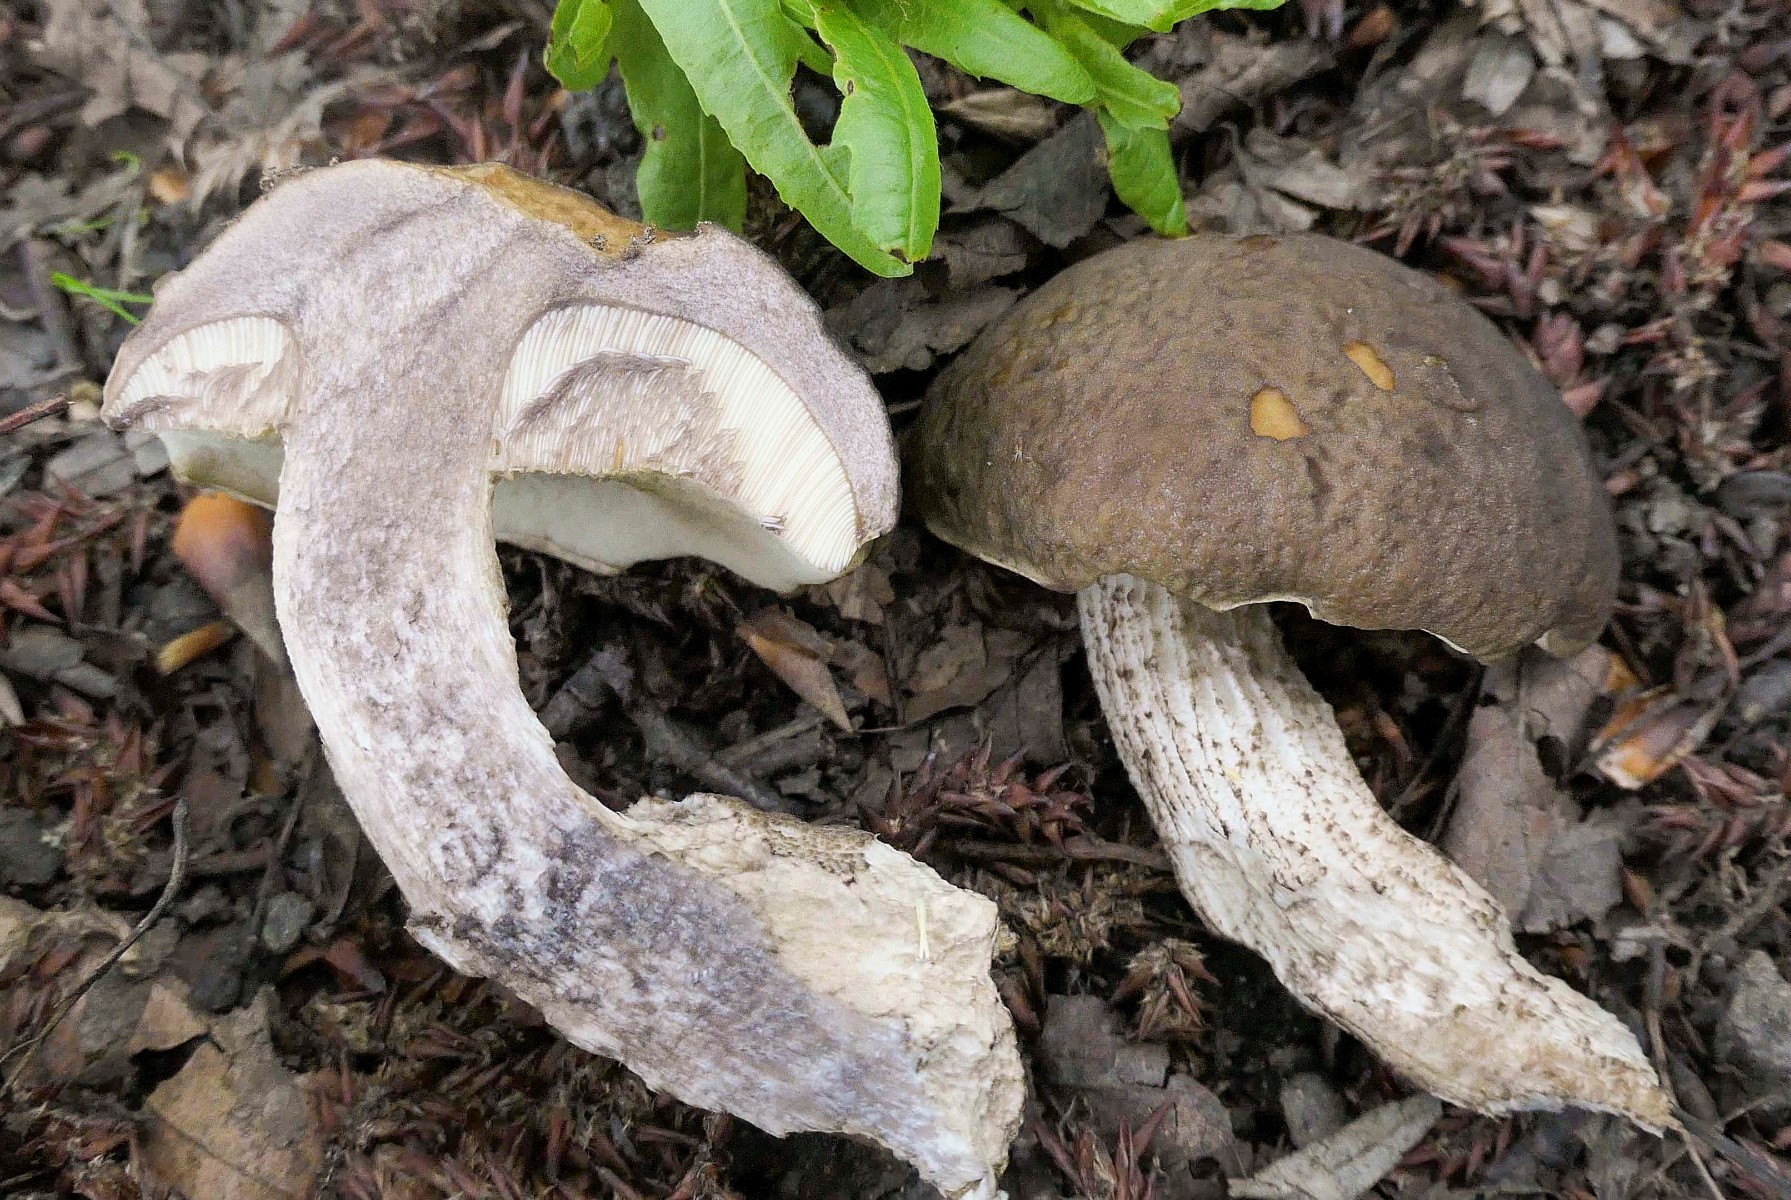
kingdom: Fungi
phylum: Basidiomycota
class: Agaricomycetes
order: Boletales
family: Boletaceae
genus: Leccinellum
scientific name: Leccinellum pseudoscabrum
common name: avnbøg-skælrørhat
